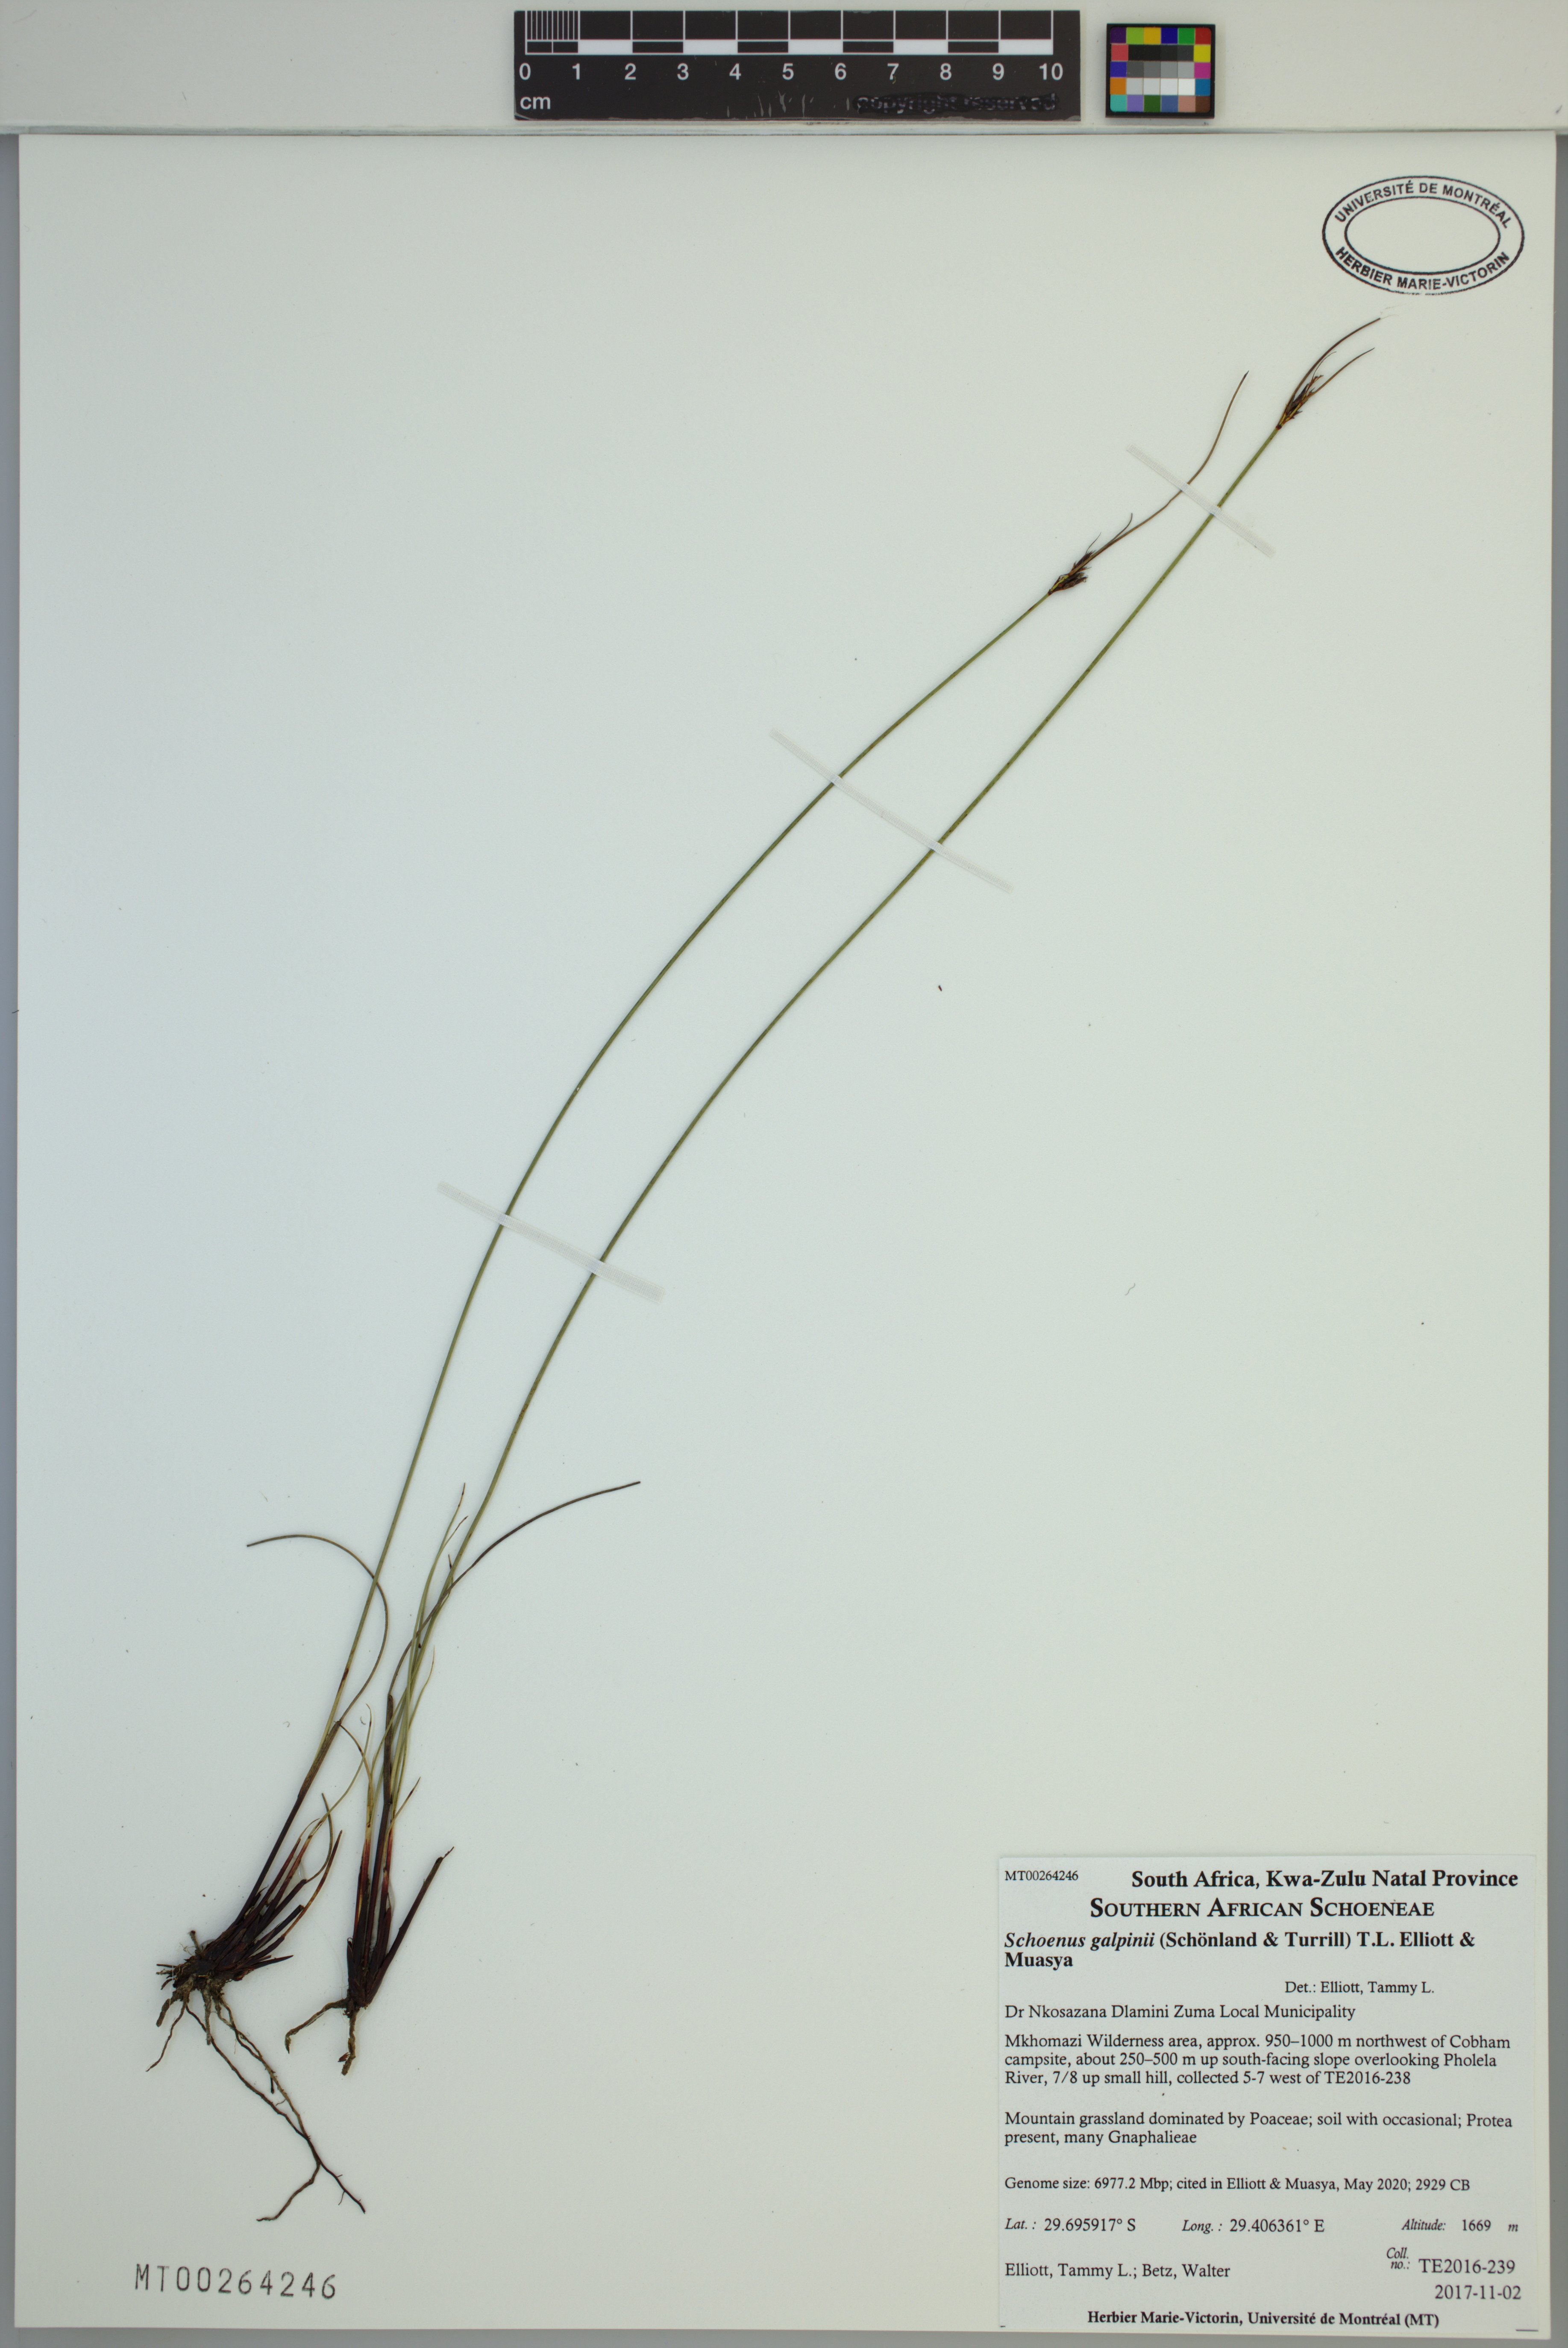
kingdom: Plantae
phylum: Tracheophyta
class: Liliopsida
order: Poales
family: Cyperaceae
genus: Schoenus
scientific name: Schoenus galpinii
